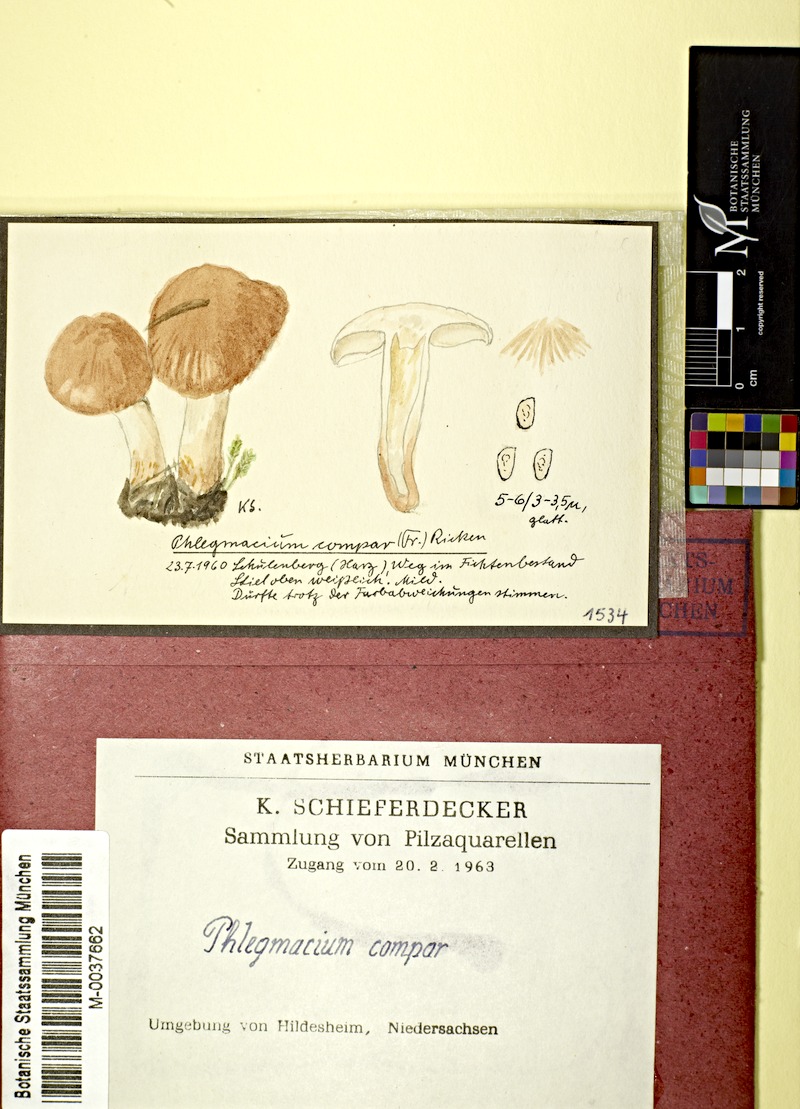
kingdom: Fungi
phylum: Basidiomycota
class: Agaricomycetes
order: Agaricales
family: Cortinariaceae
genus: Cortinarius
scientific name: Cortinarius compar
